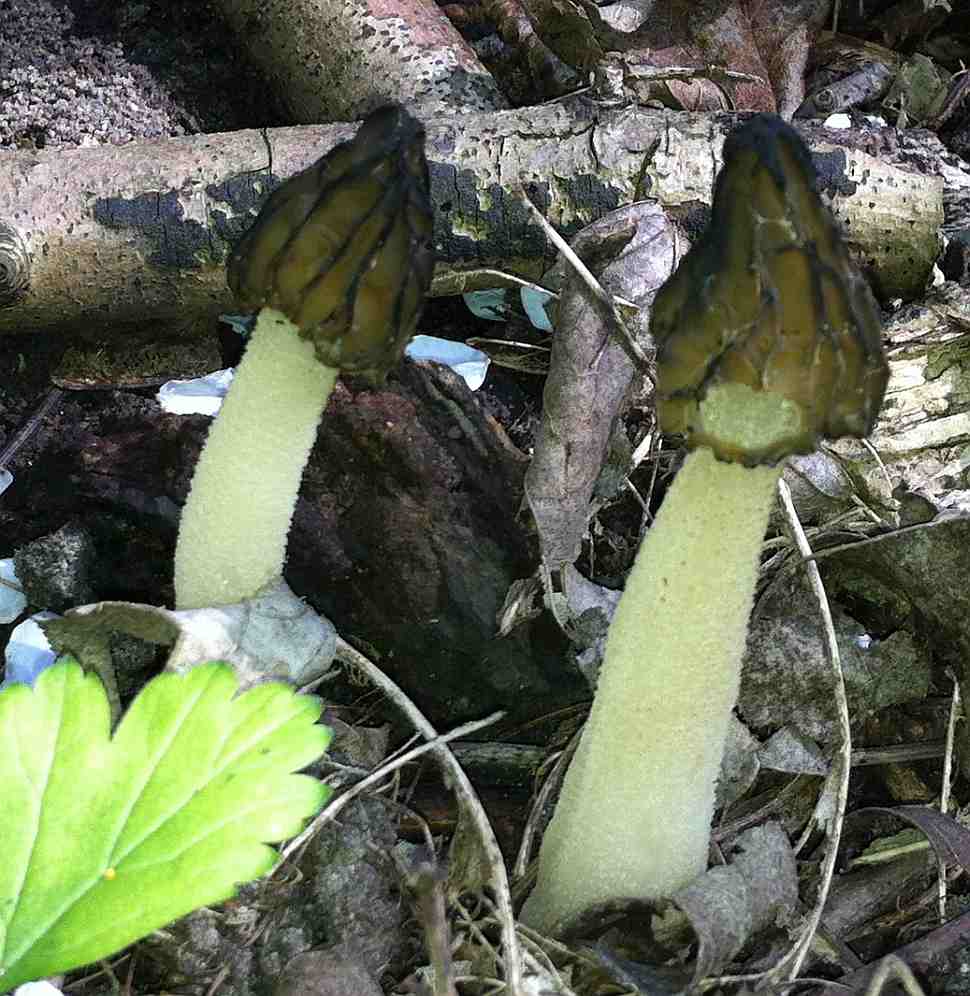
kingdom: Fungi
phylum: Ascomycota
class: Pezizomycetes
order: Pezizales
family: Morchellaceae
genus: Morchella
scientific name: Morchella semilibera
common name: hætte-morkel
